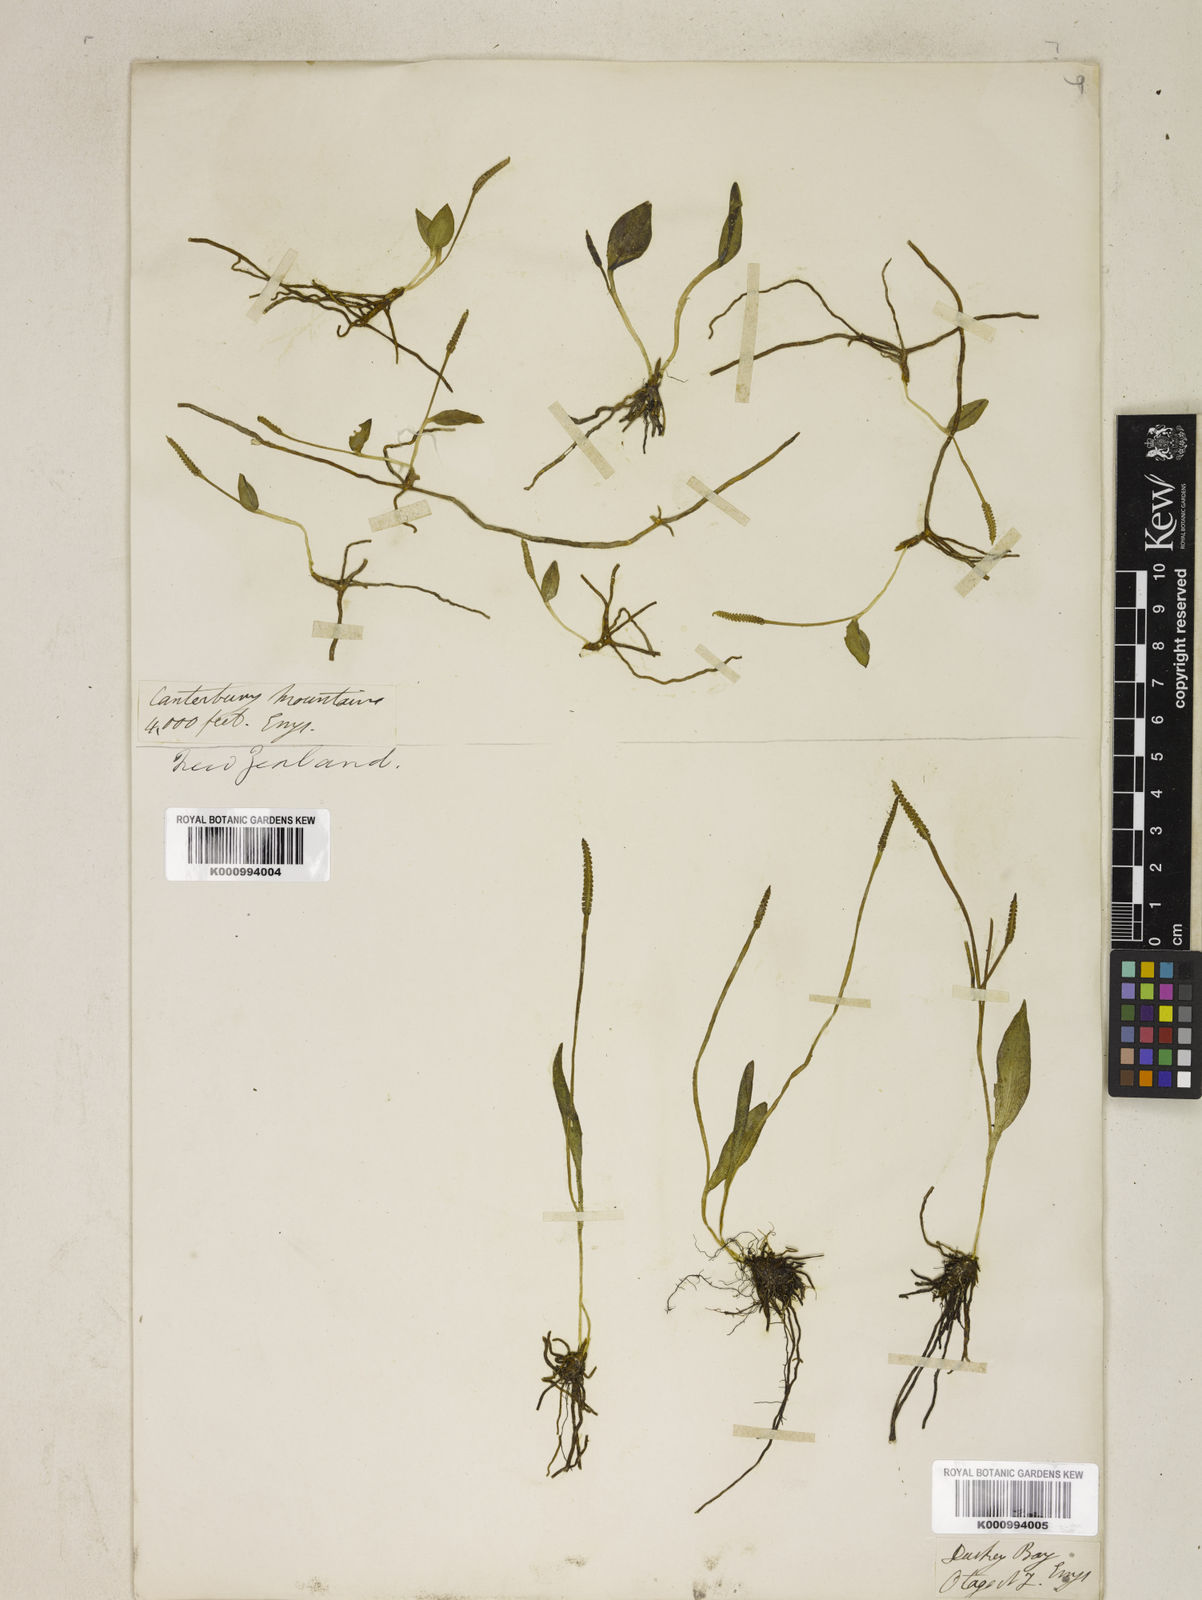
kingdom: Plantae
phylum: Tracheophyta
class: Polypodiopsida
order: Ophioglossales
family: Ophioglossaceae
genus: Ophioglossum
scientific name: Ophioglossum
